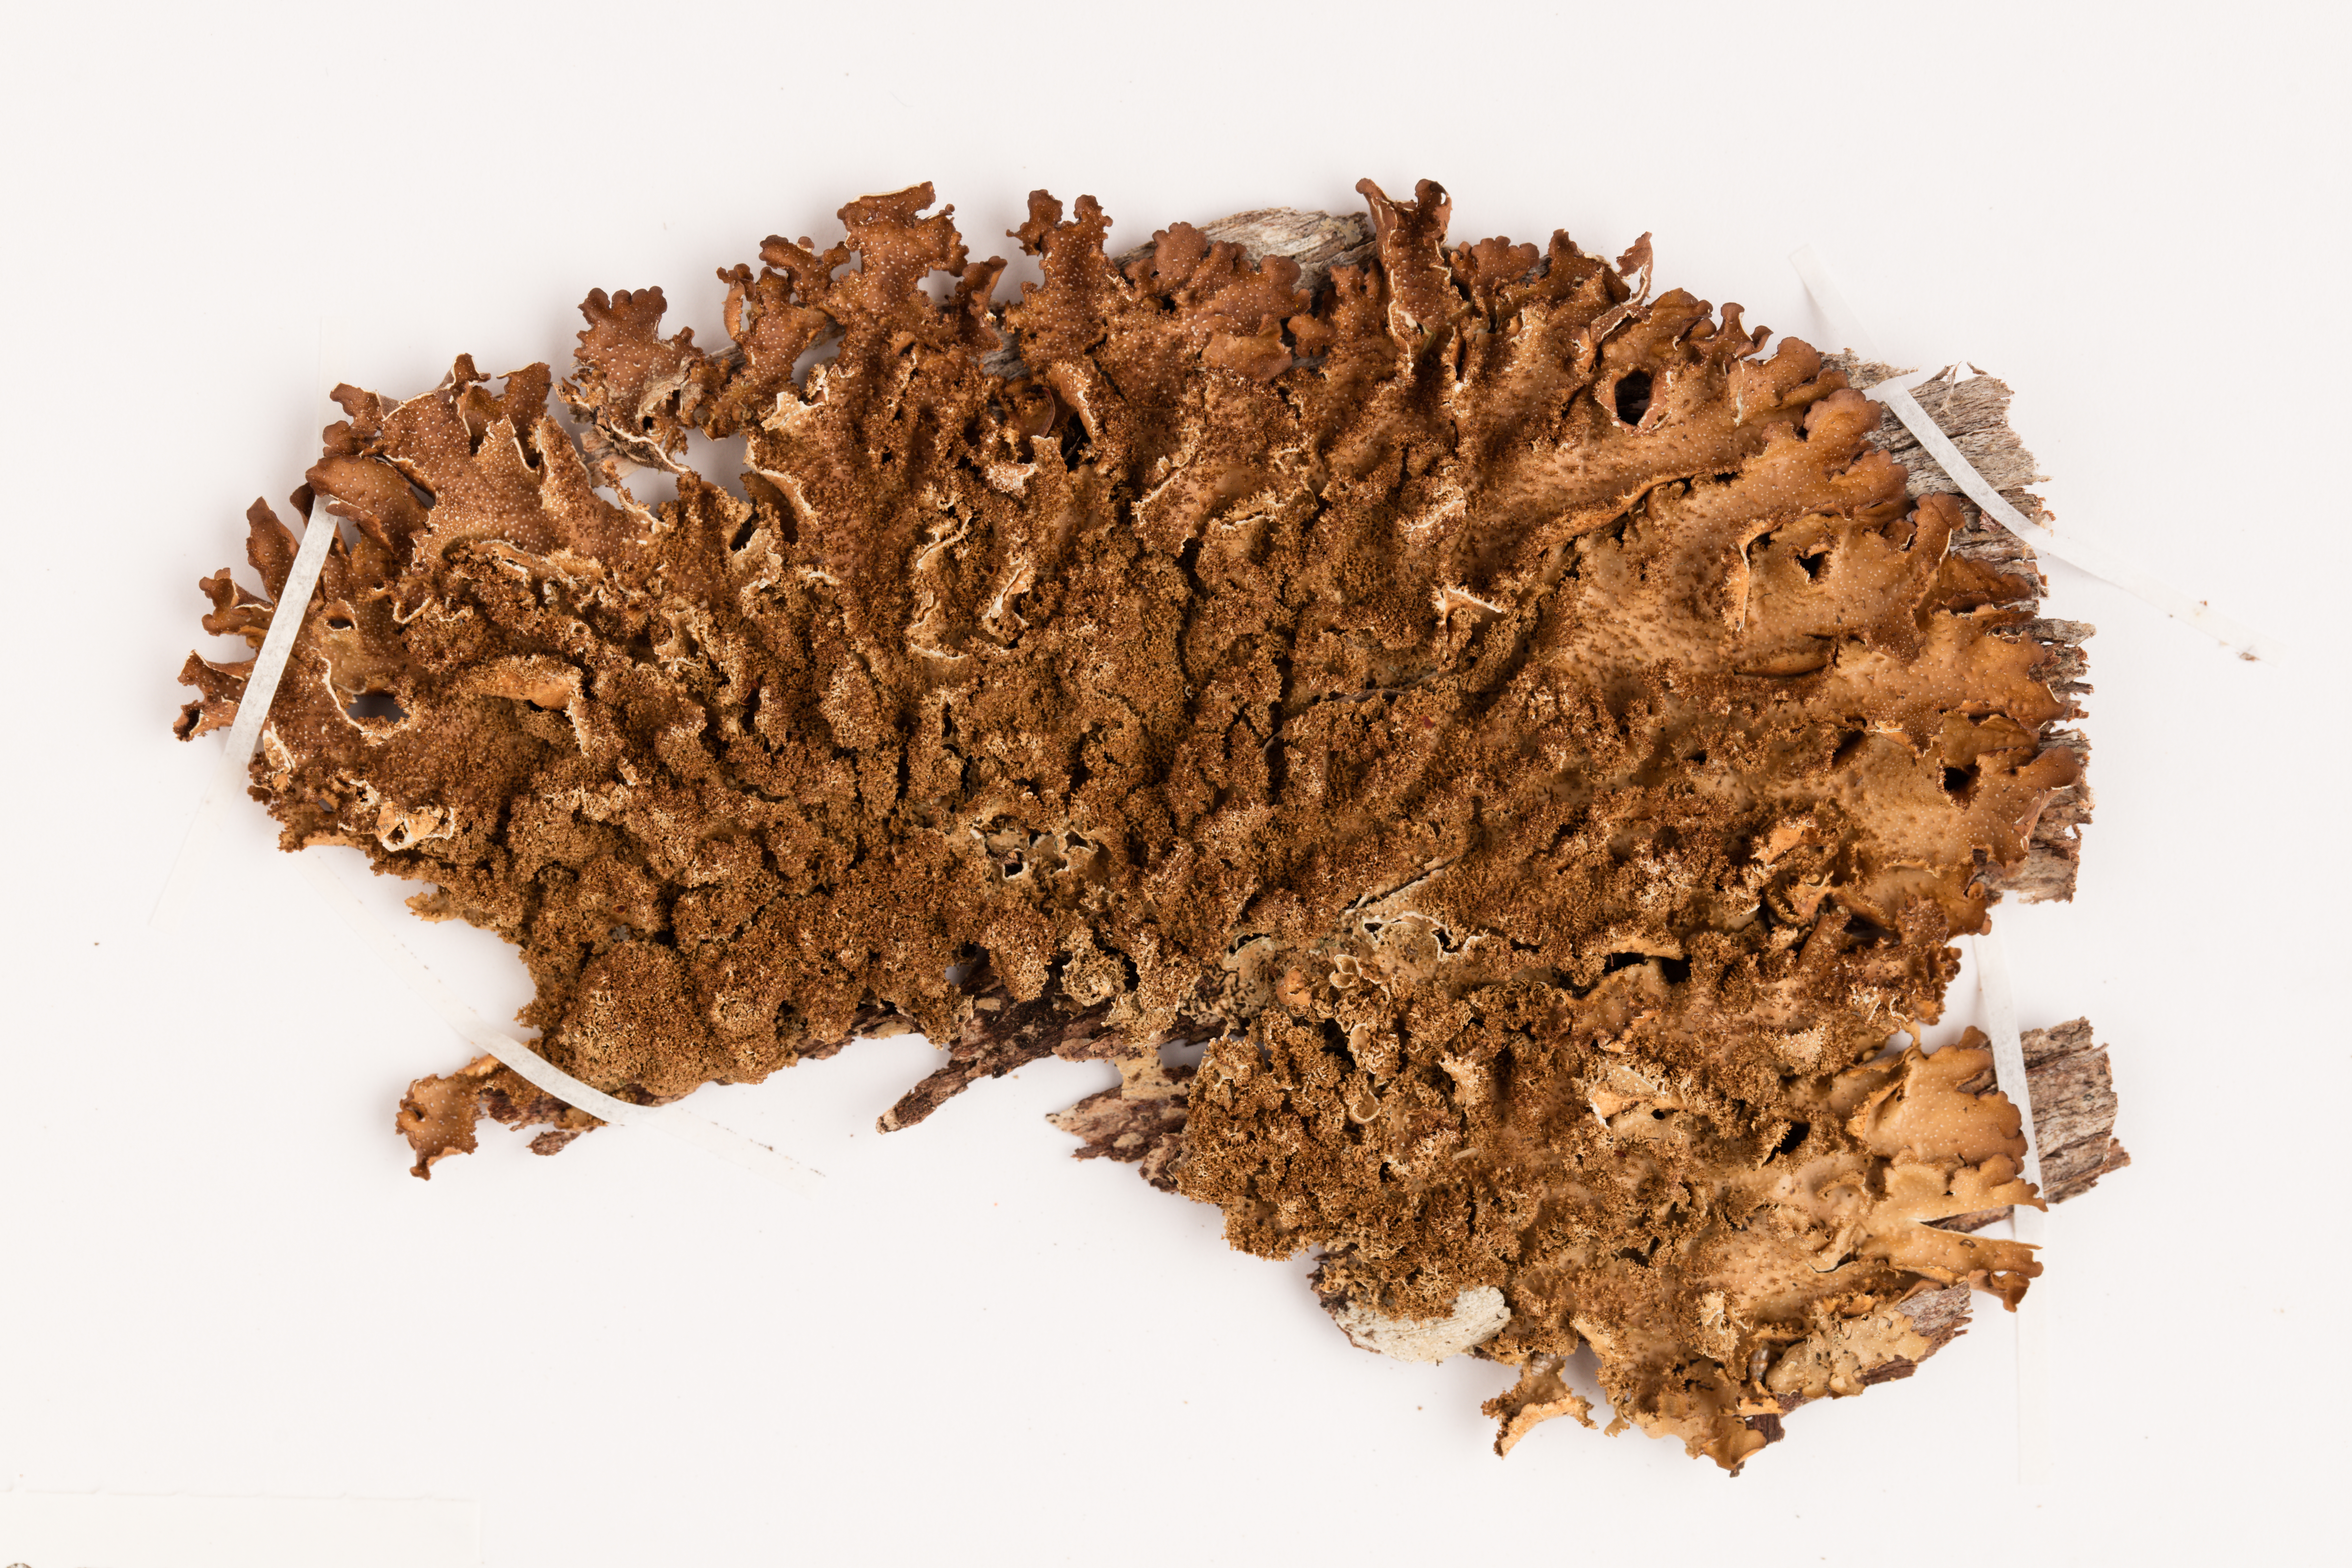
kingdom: Fungi
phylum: Ascomycota
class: Lecanoromycetes
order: Peltigerales
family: Lobariaceae
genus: Pseudocyphellaria
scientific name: Pseudocyphellaria episticta
